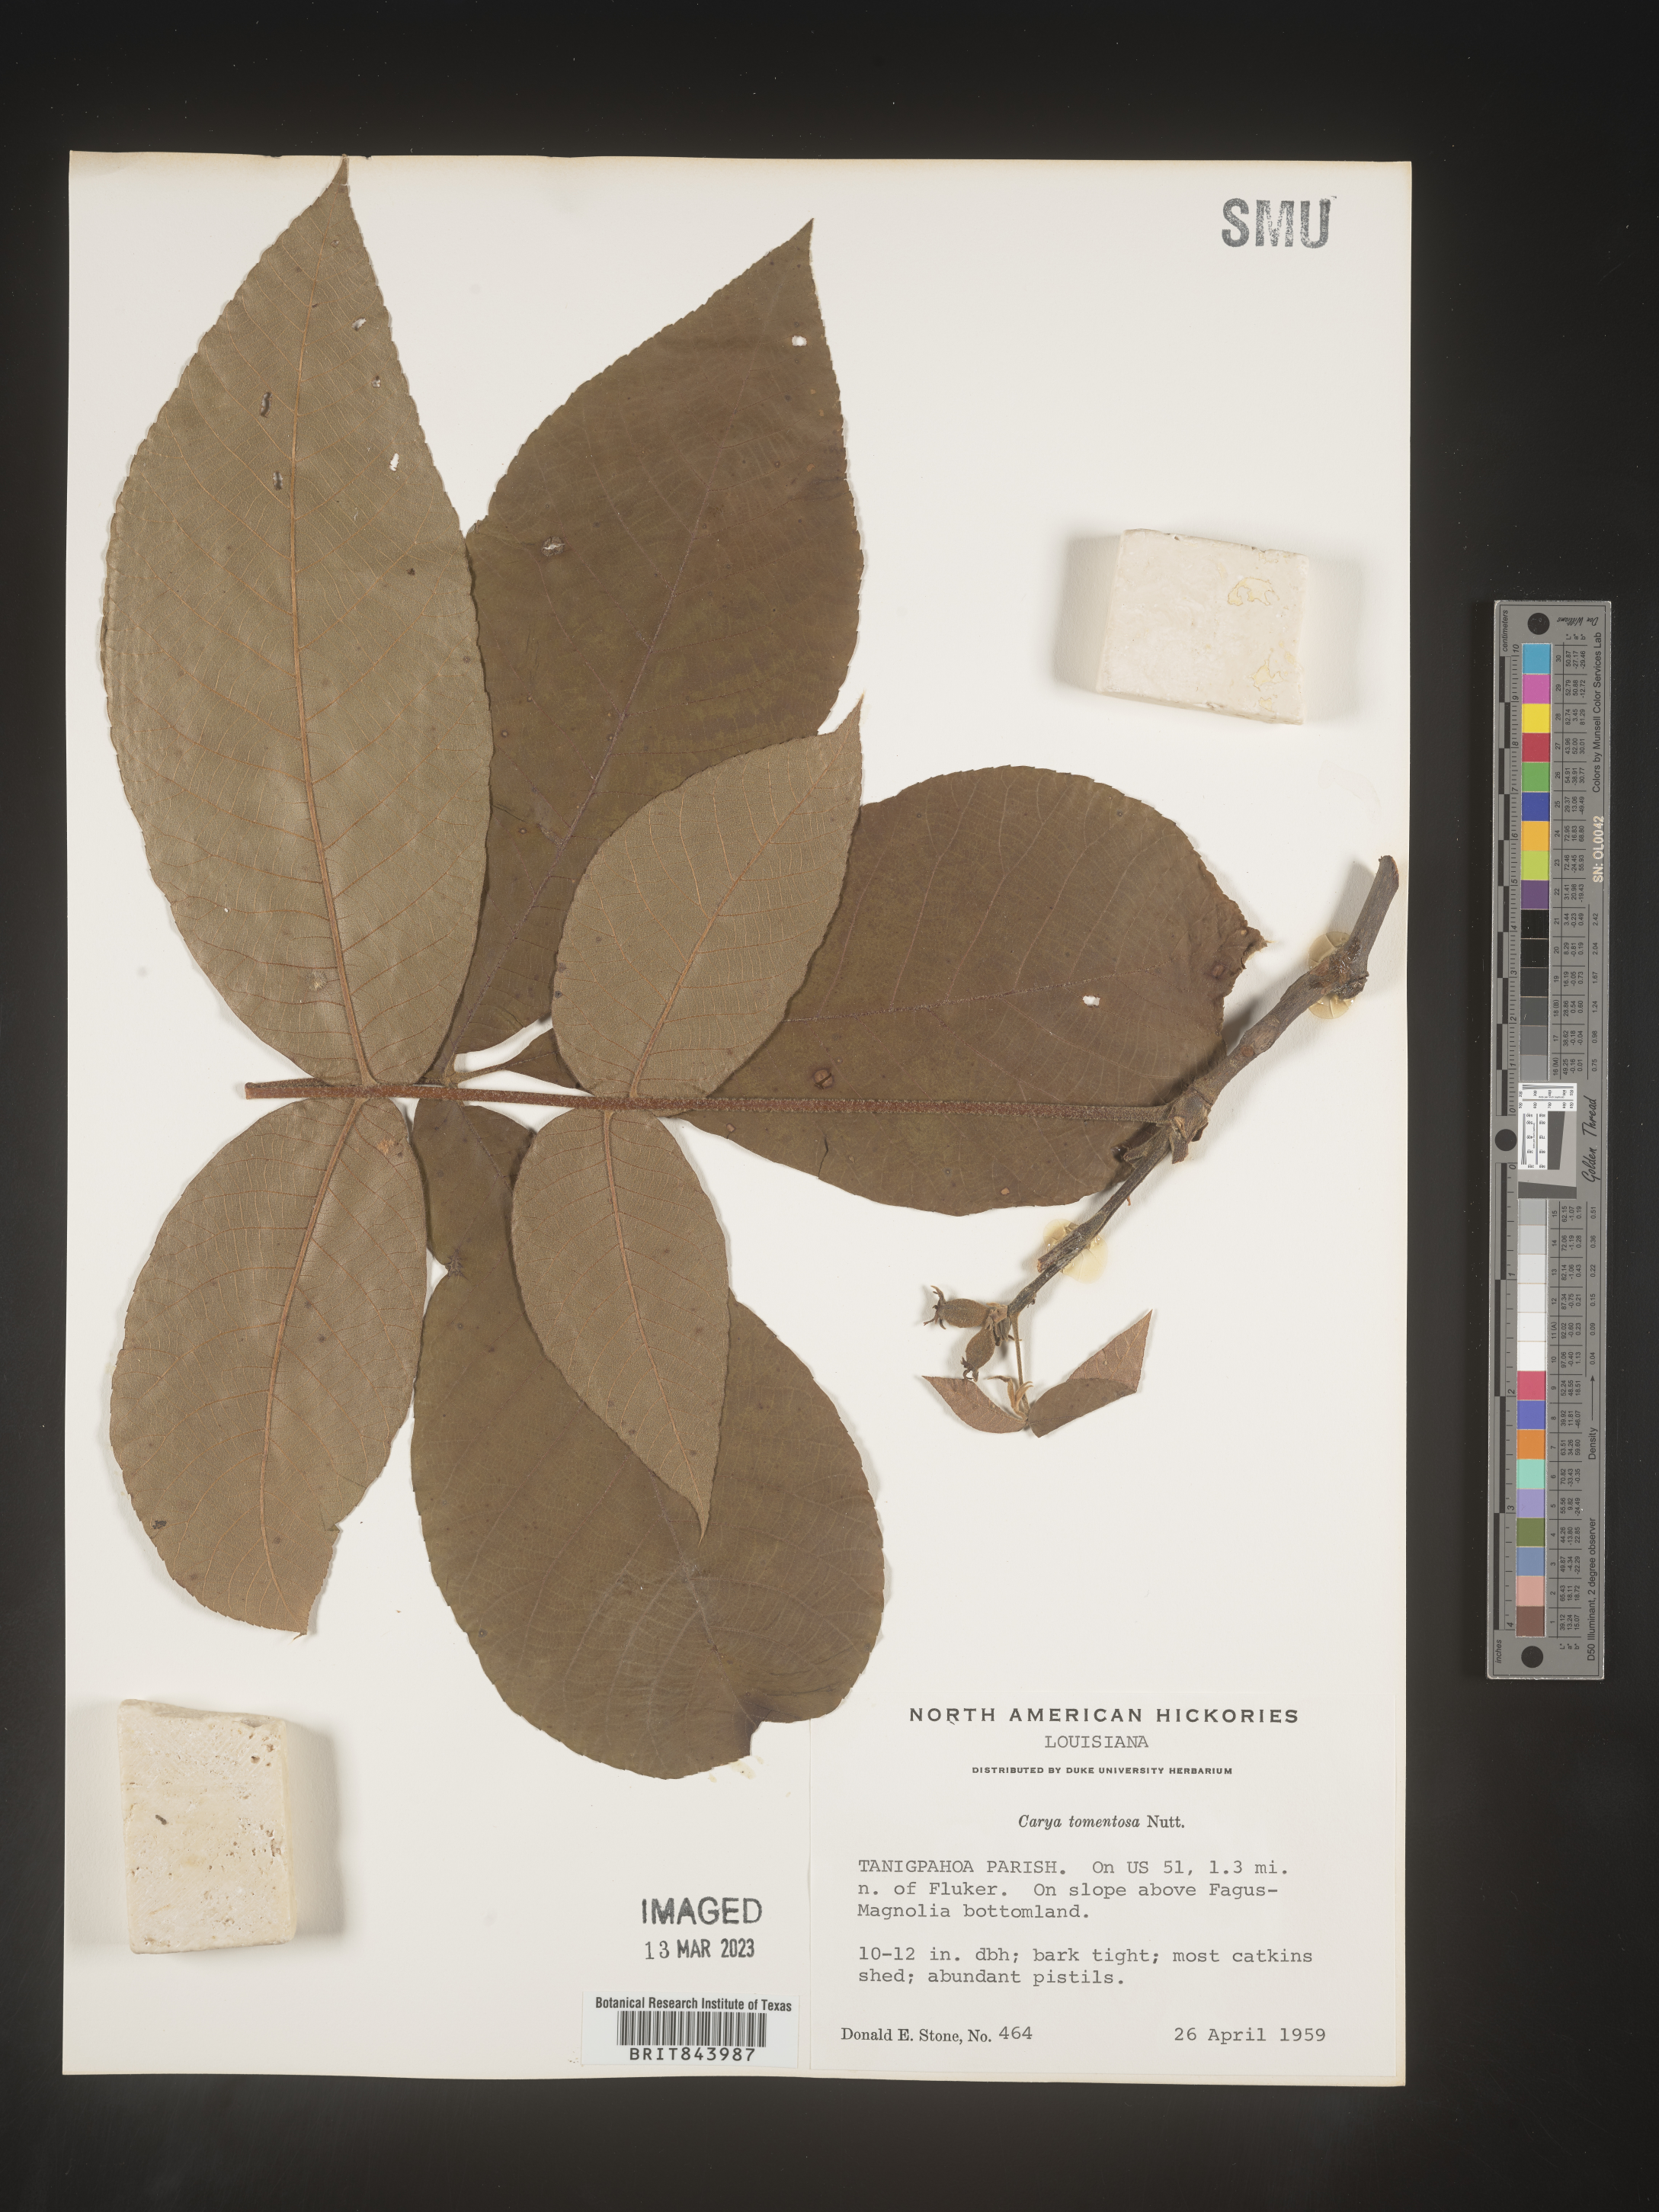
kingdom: Plantae
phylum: Tracheophyta
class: Magnoliopsida
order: Fagales
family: Juglandaceae
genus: Carya
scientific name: Carya alba
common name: Mockernut hickory
